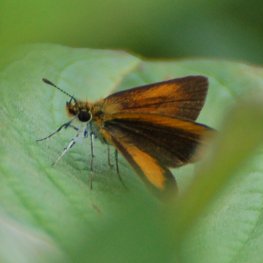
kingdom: Animalia
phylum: Arthropoda
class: Insecta
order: Lepidoptera
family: Hesperiidae
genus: Ancyloxypha
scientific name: Ancyloxypha numitor
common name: Least Skipper
